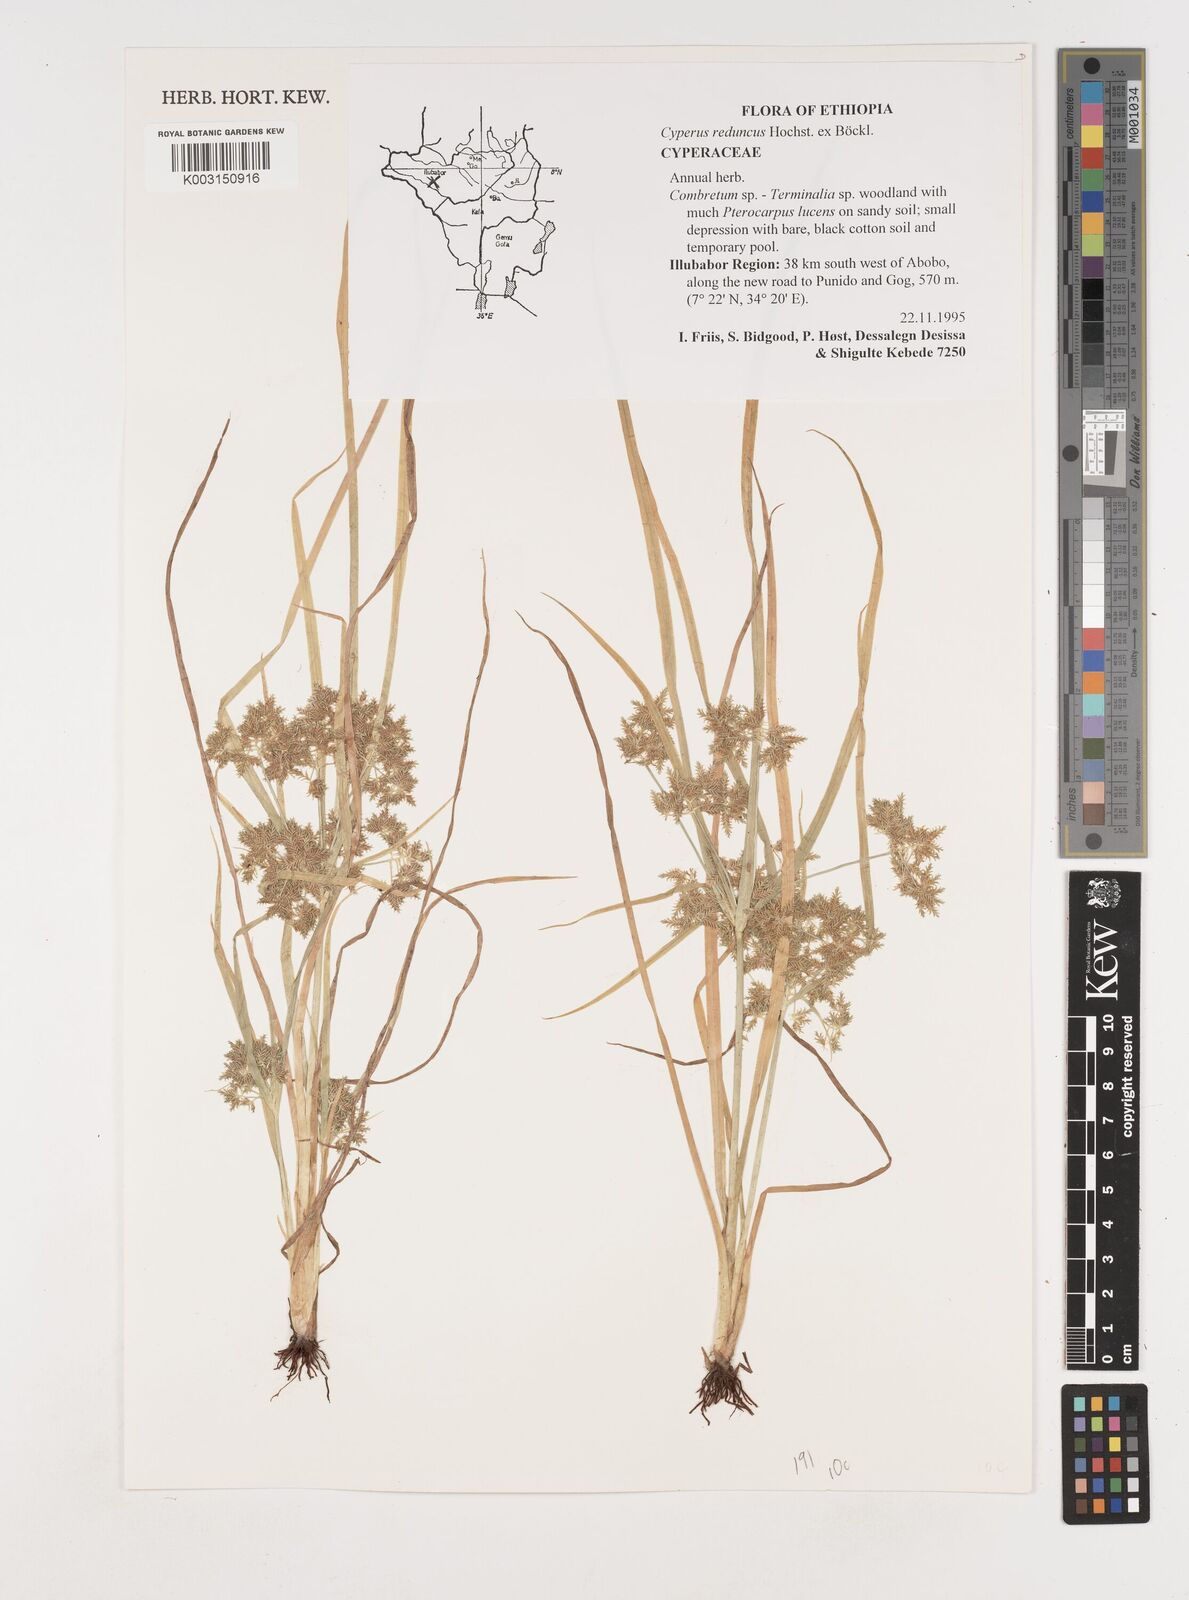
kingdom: Plantae
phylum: Tracheophyta
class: Liliopsida
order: Poales
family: Cyperaceae
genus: Cyperus
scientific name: Cyperus reduncus
